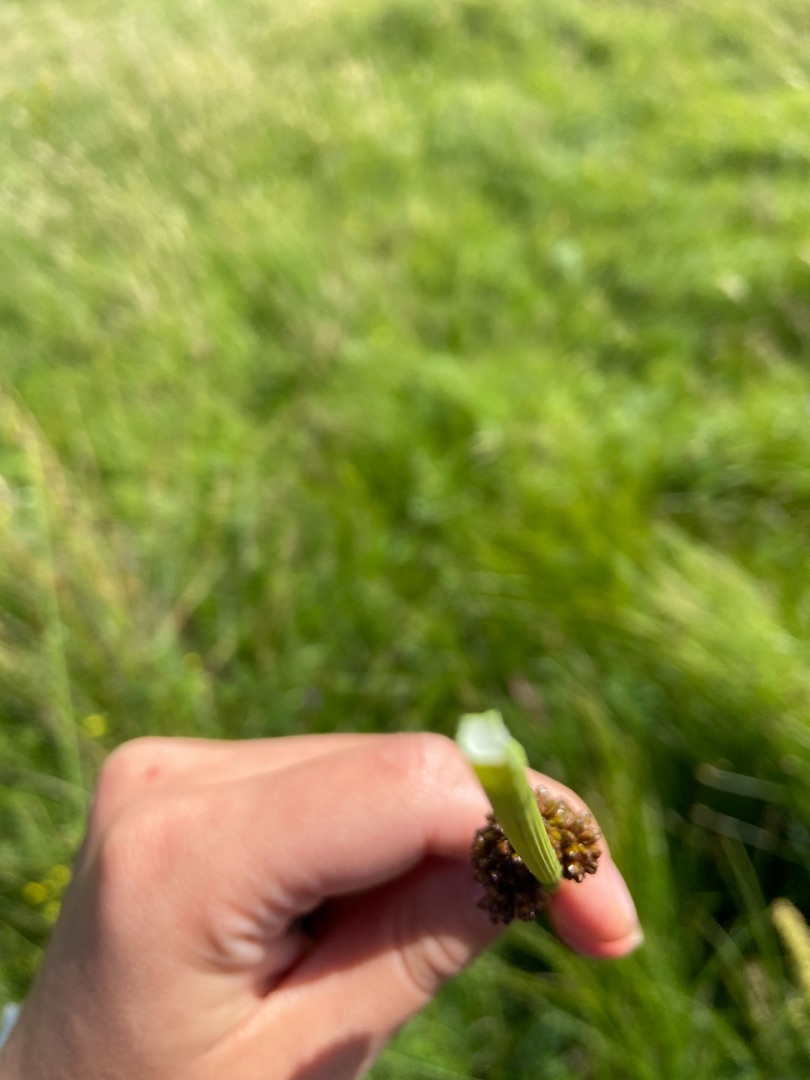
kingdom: Plantae
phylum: Tracheophyta
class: Liliopsida
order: Poales
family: Juncaceae
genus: Juncus
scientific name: Juncus conglomeratus
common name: Knop-siv
